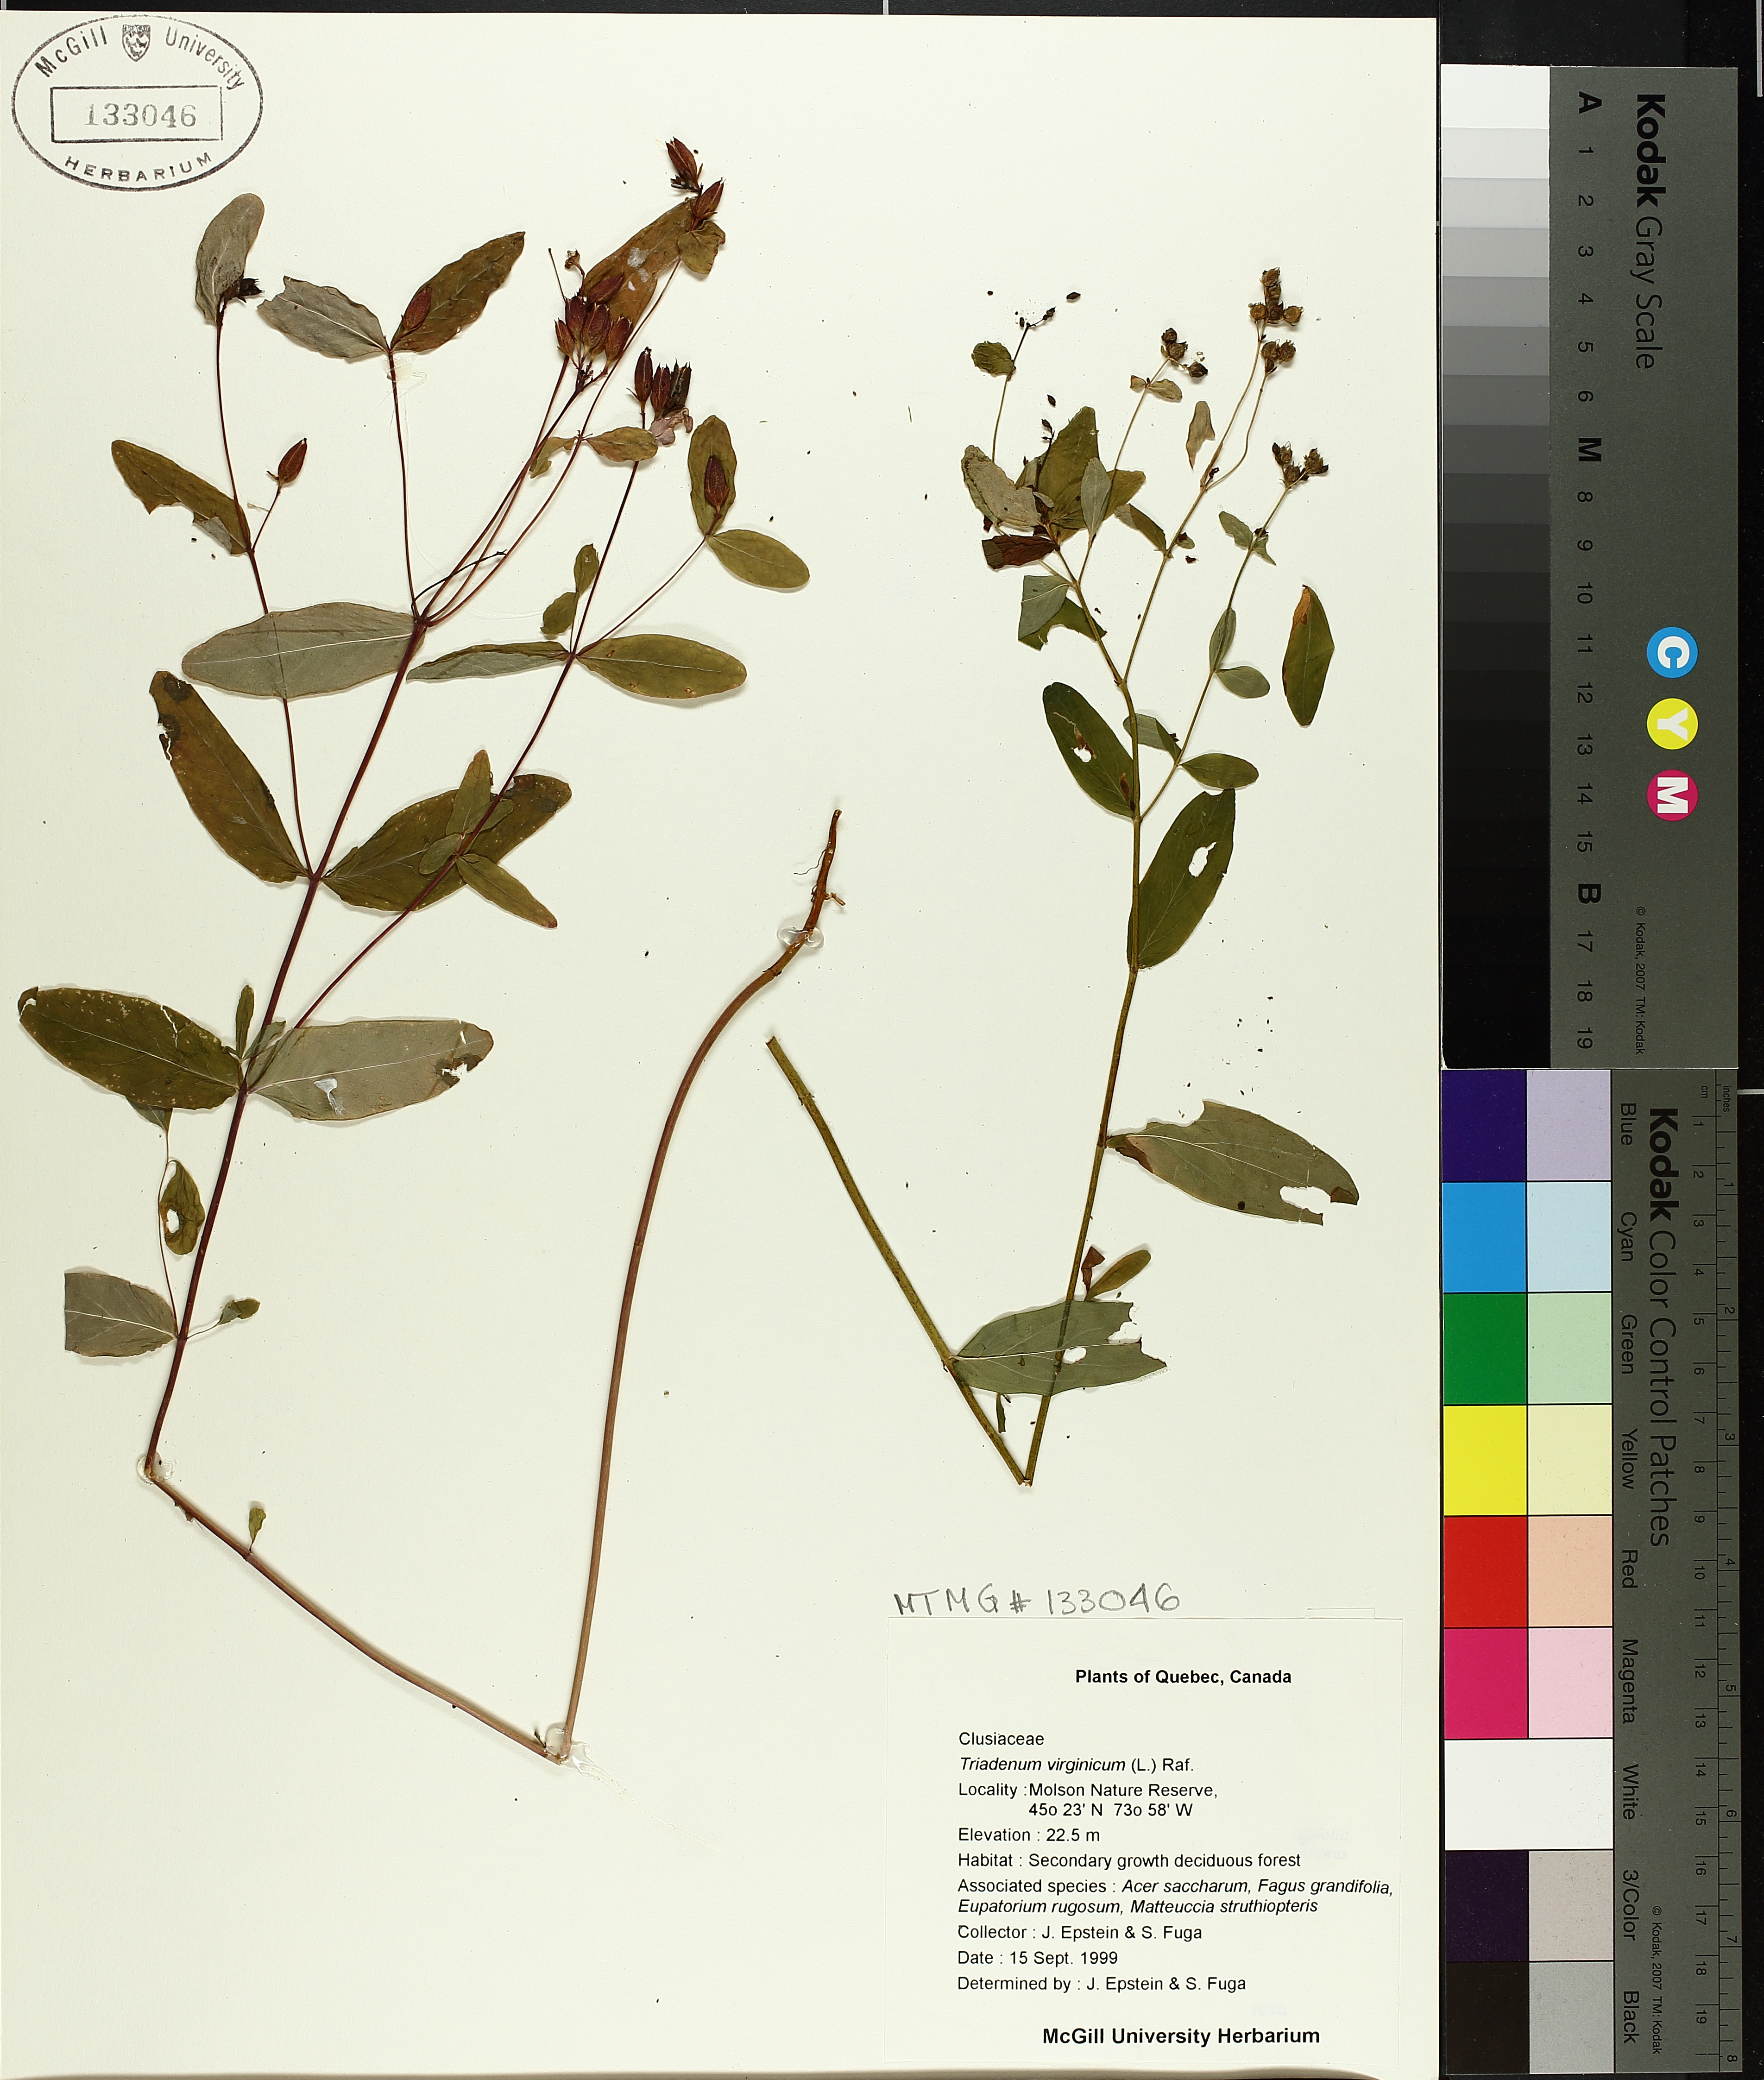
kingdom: Plantae
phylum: Tracheophyta
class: Magnoliopsida
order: Malpighiales
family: Hypericaceae
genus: Triadenum
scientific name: Triadenum fraseri
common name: Fraser's marsh st. johnswort
